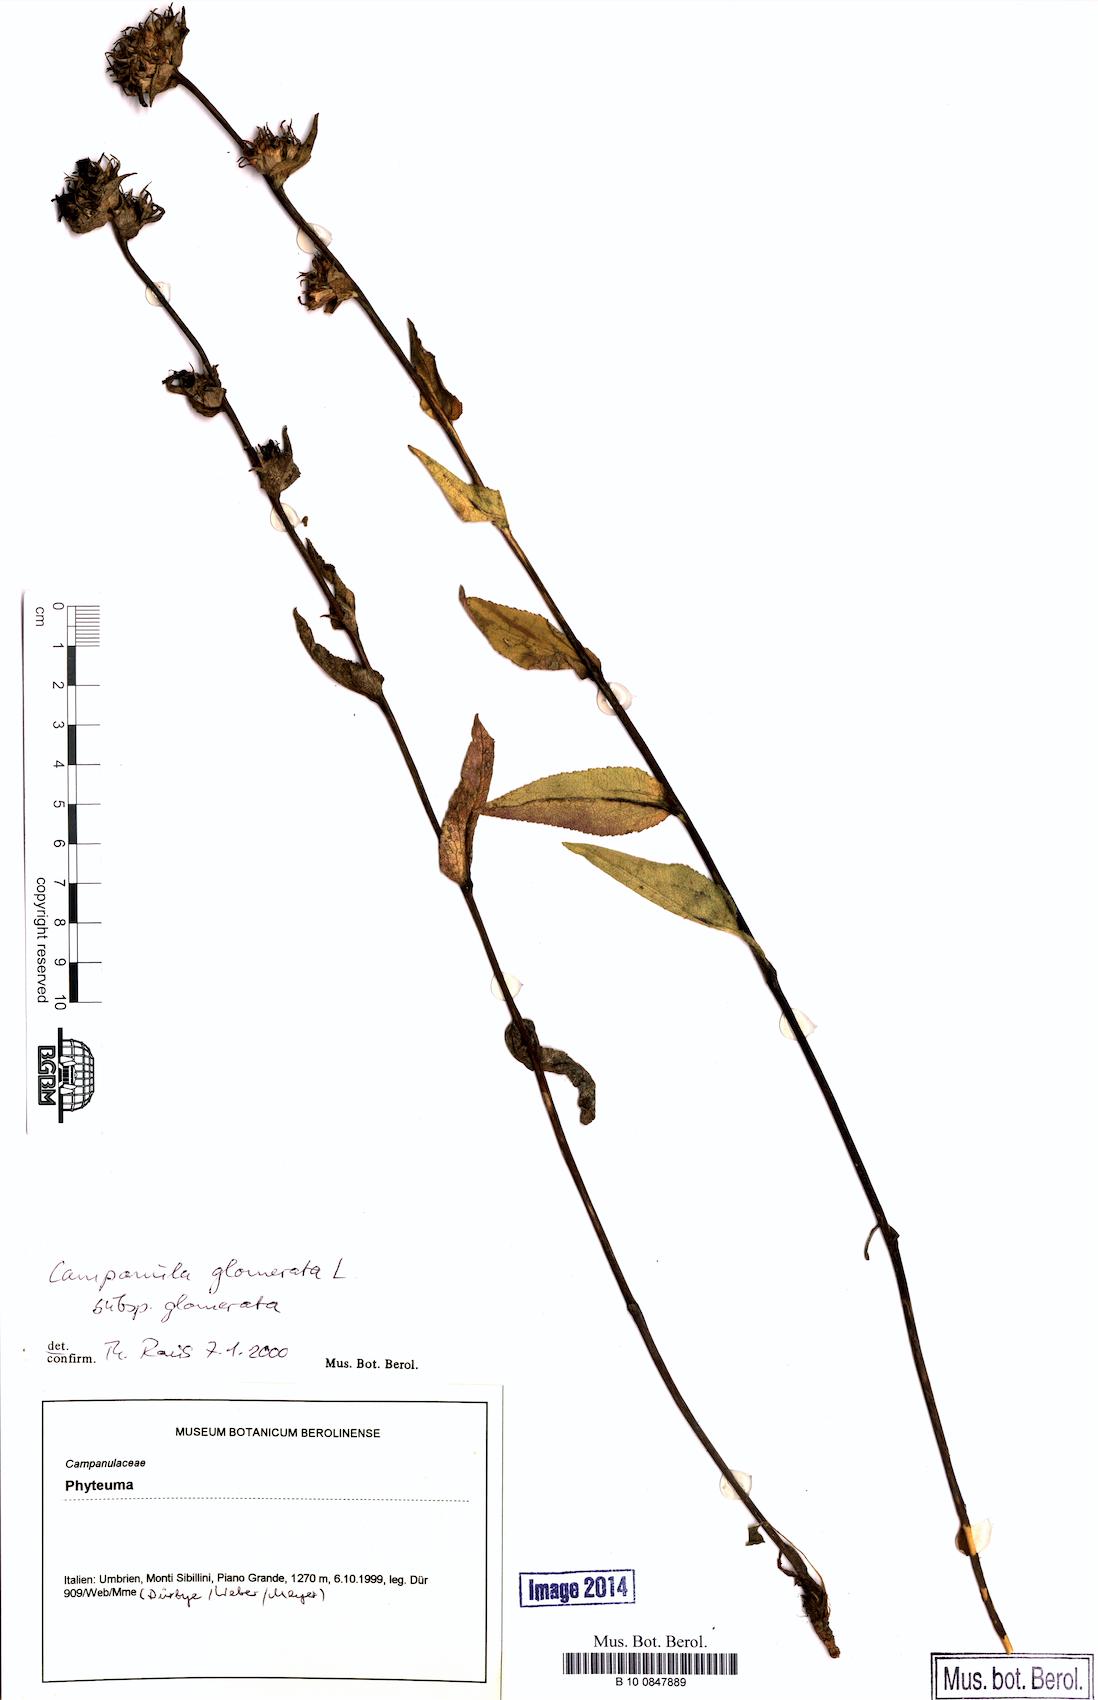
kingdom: Plantae
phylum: Tracheophyta
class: Magnoliopsida
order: Asterales
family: Campanulaceae
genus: Campanula
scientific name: Campanula glomerata
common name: Clustered bellflower
